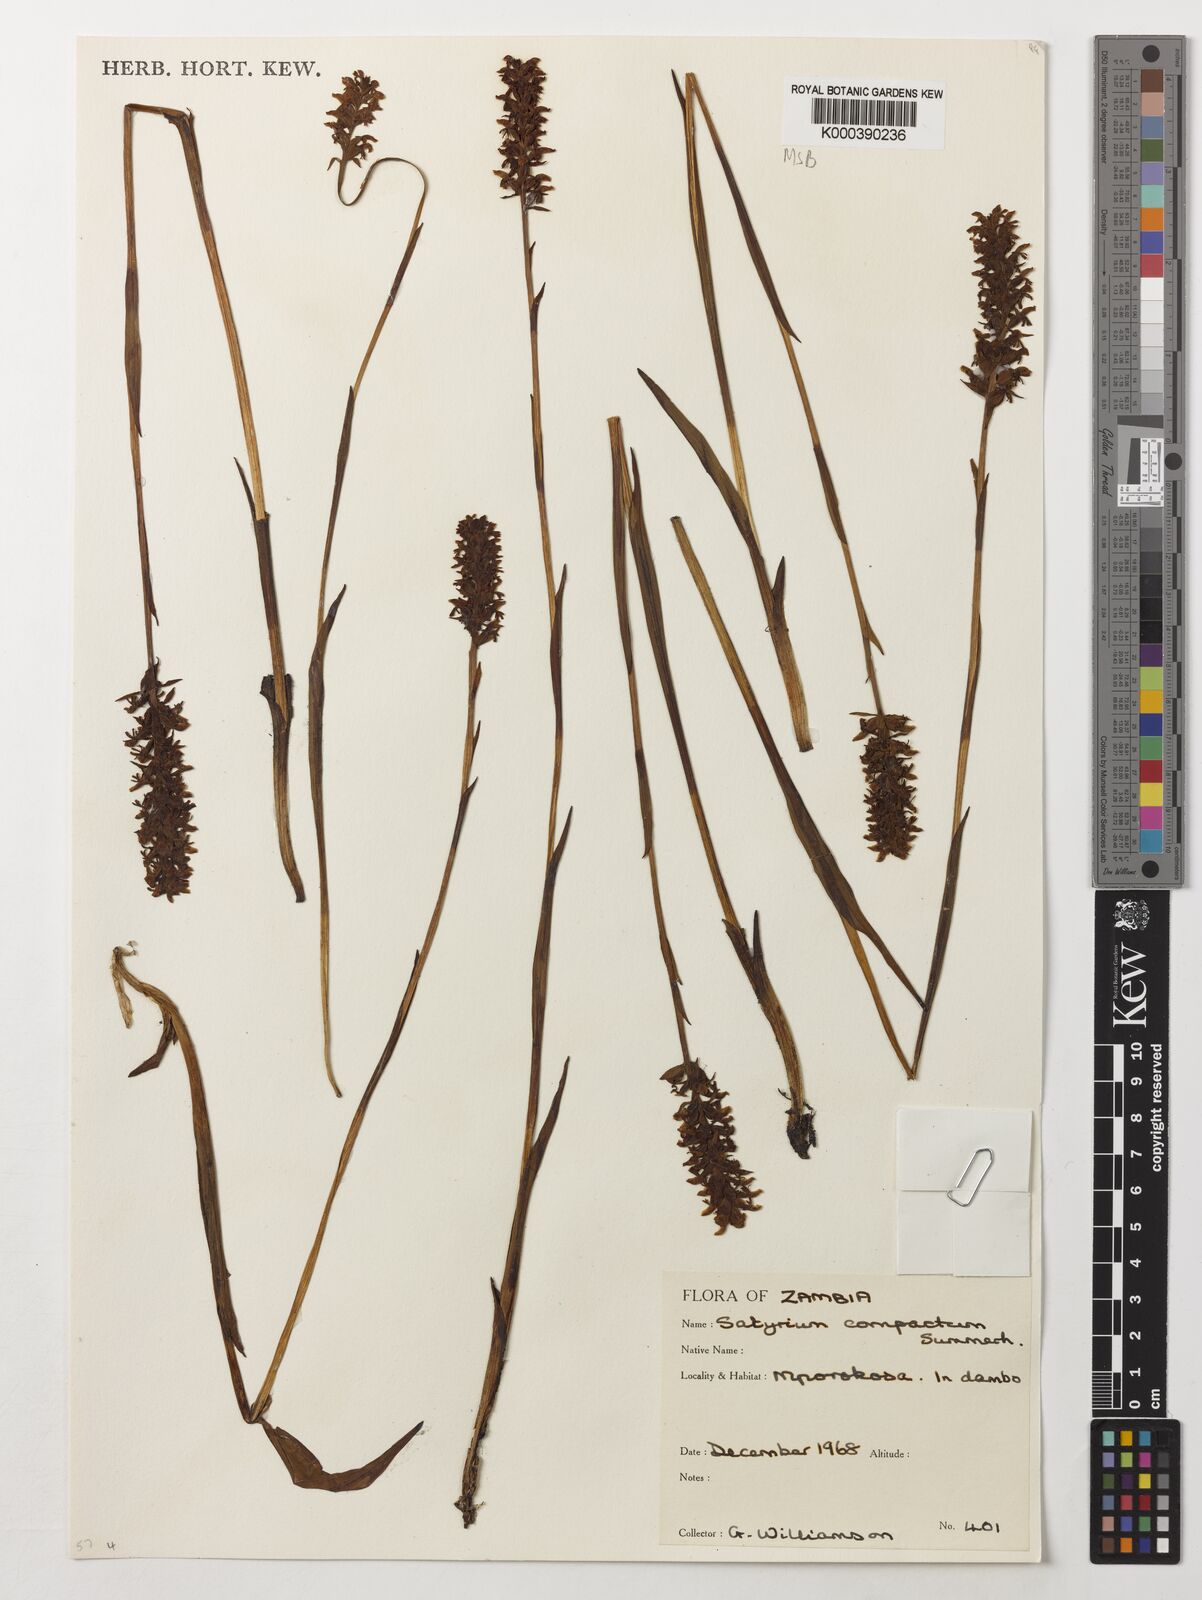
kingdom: Plantae
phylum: Tracheophyta
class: Liliopsida
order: Asparagales
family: Orchidaceae
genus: Satyrium
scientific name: Satyrium compactum
